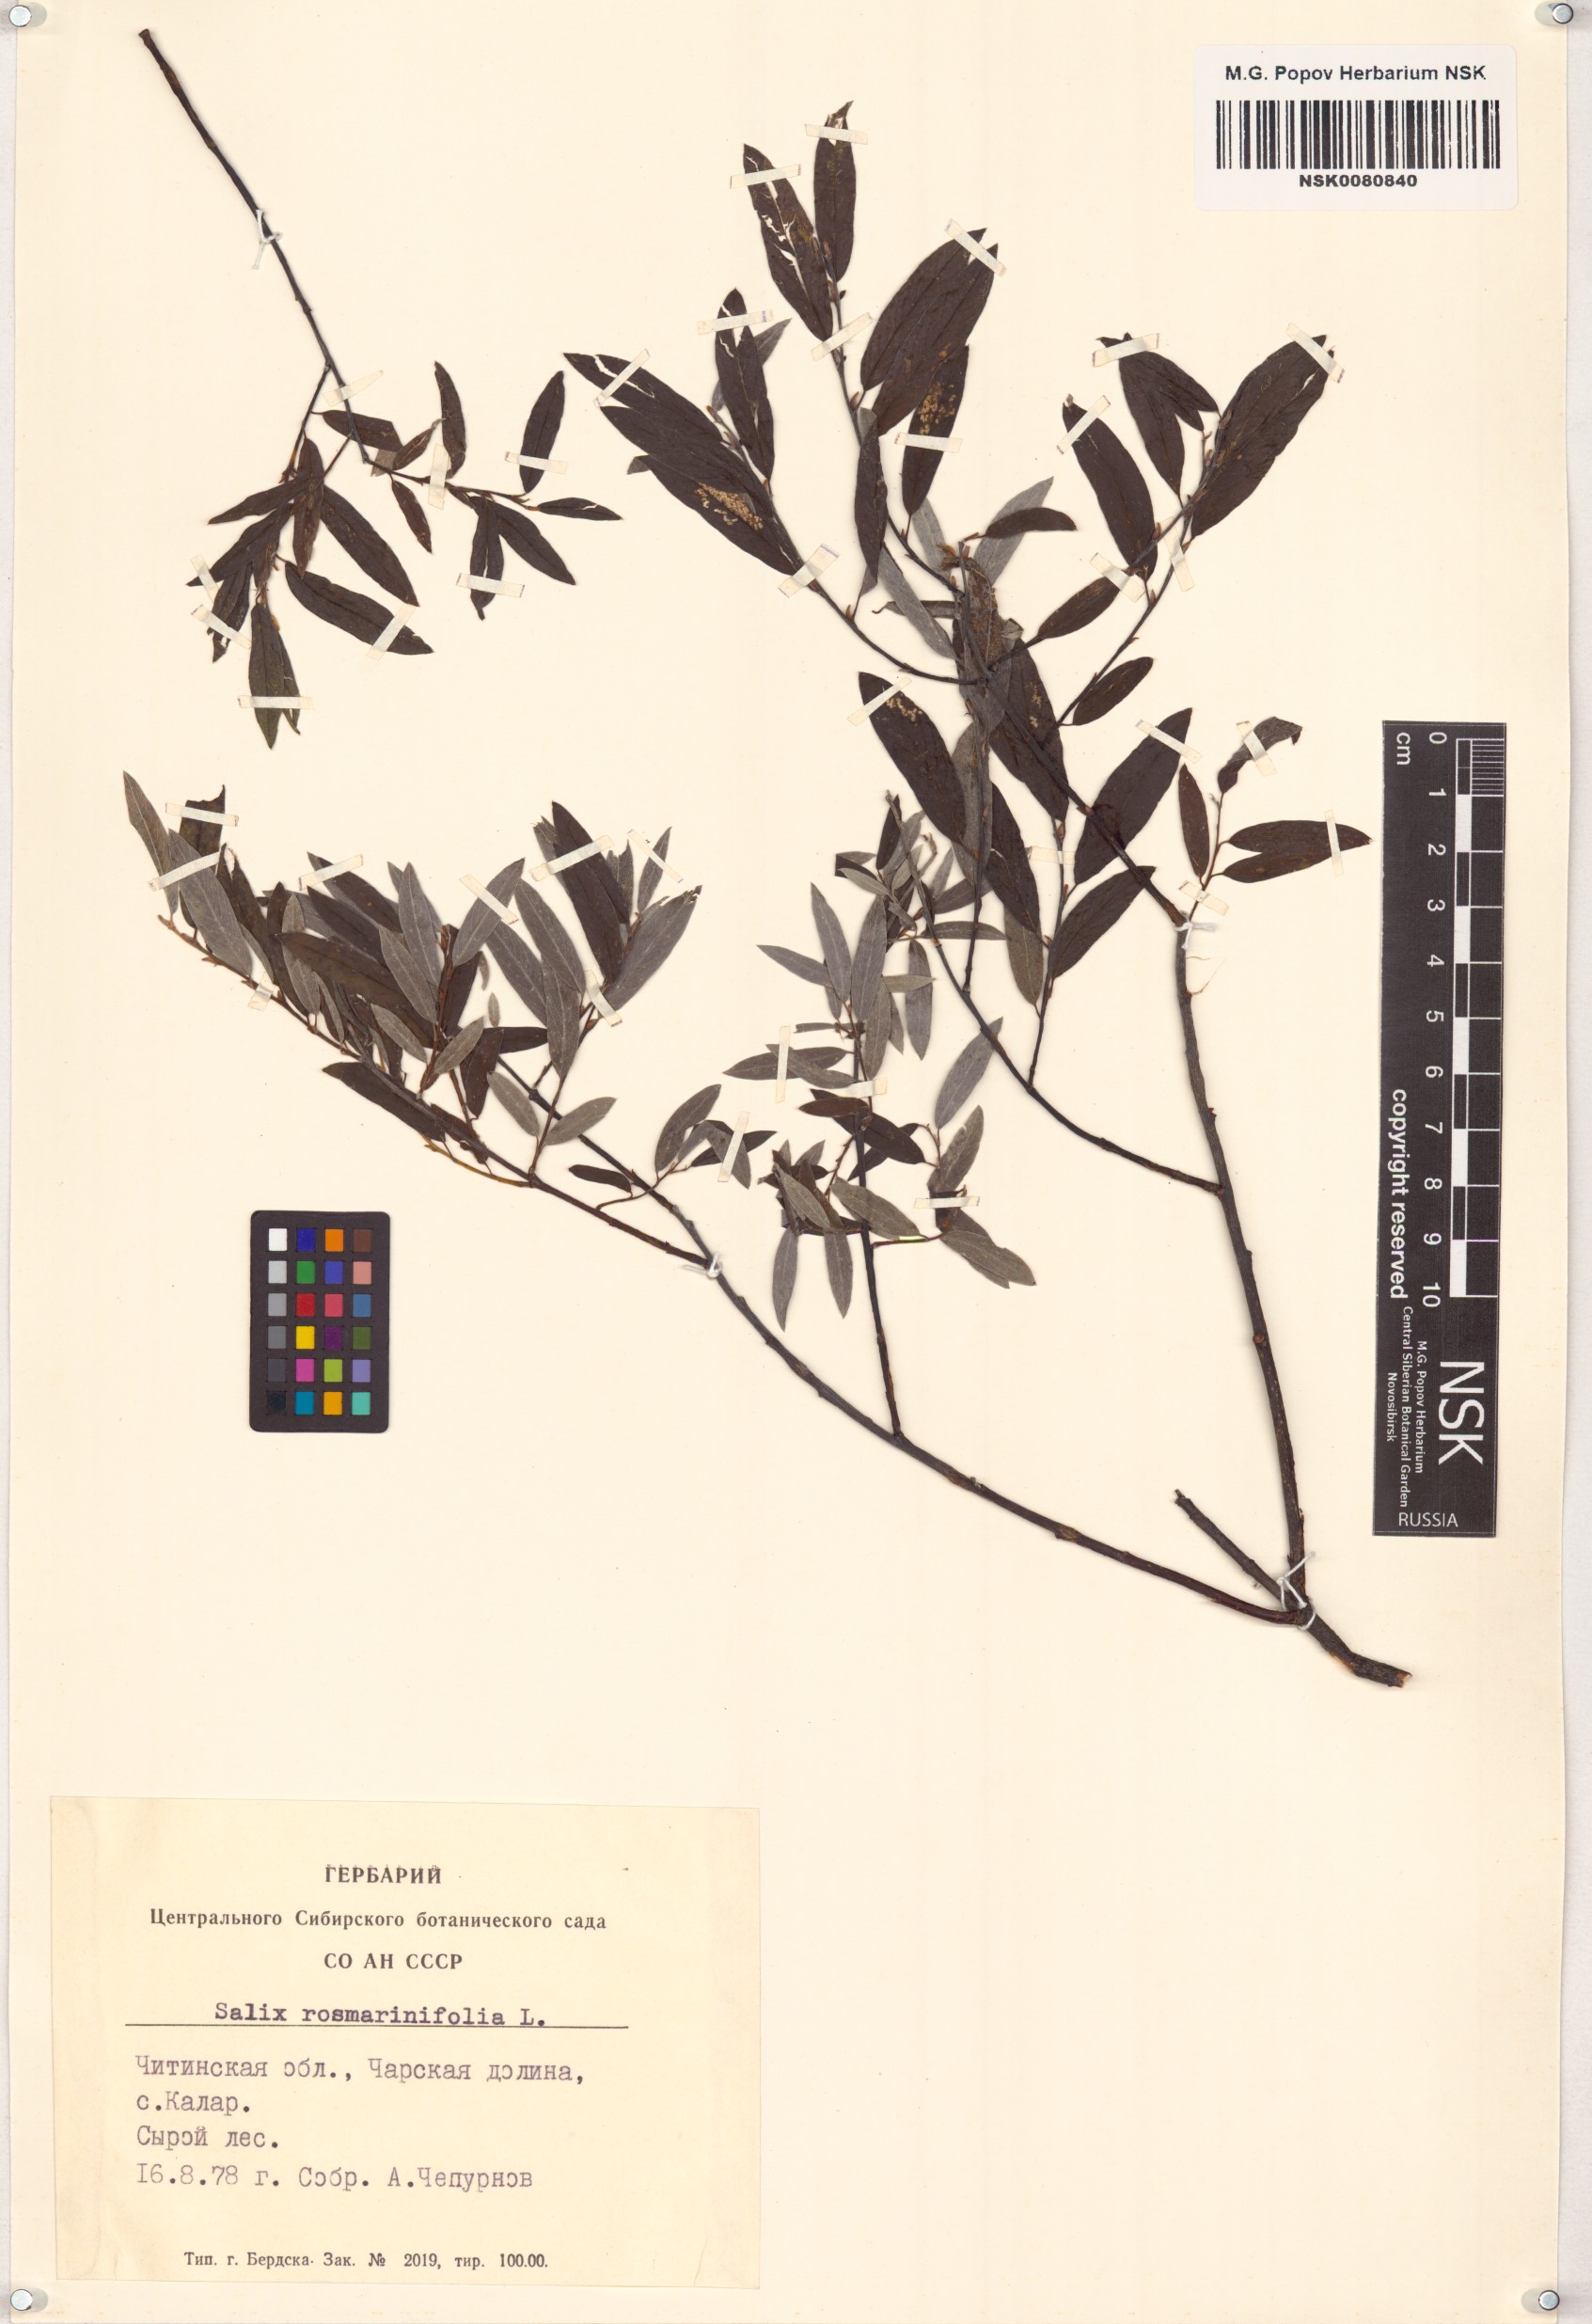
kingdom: Plantae
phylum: Tracheophyta
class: Magnoliopsida
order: Malpighiales
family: Salicaceae
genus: Salix
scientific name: Salix rosmarinifolia
